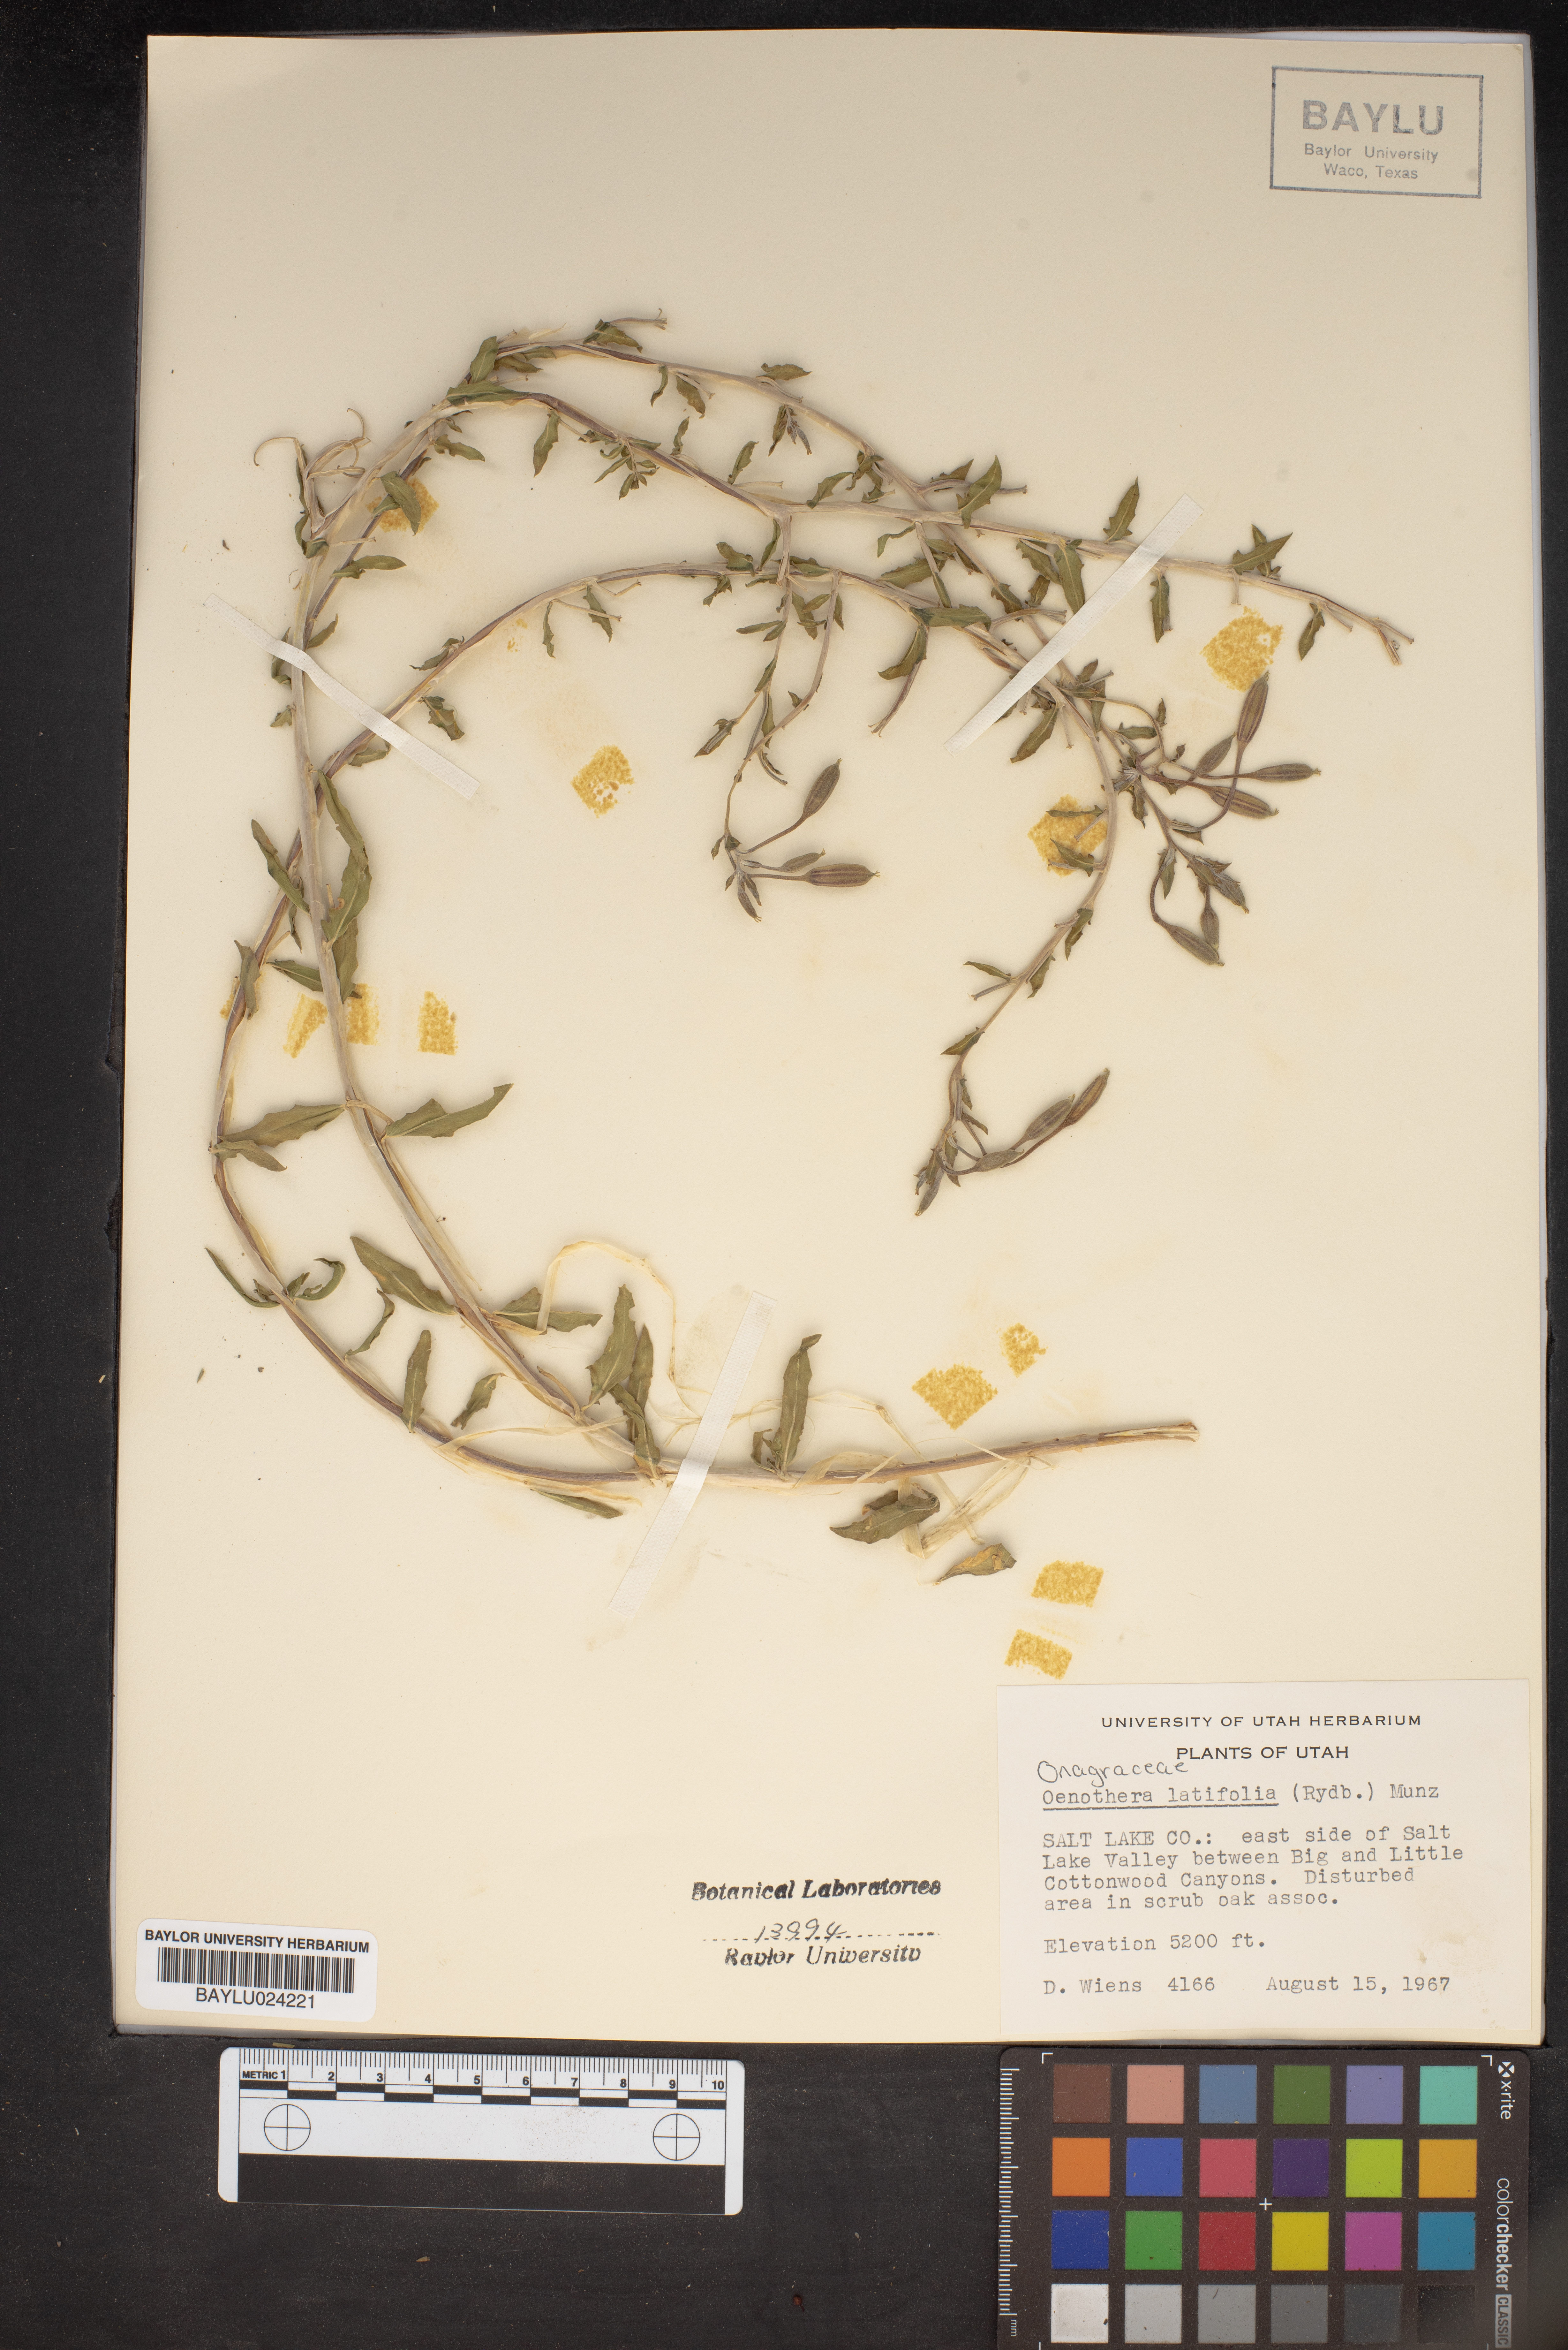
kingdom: Plantae
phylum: Tracheophyta
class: Magnoliopsida
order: Myrtales
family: Onagraceae
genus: Oenothera
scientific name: Oenothera latifolia
